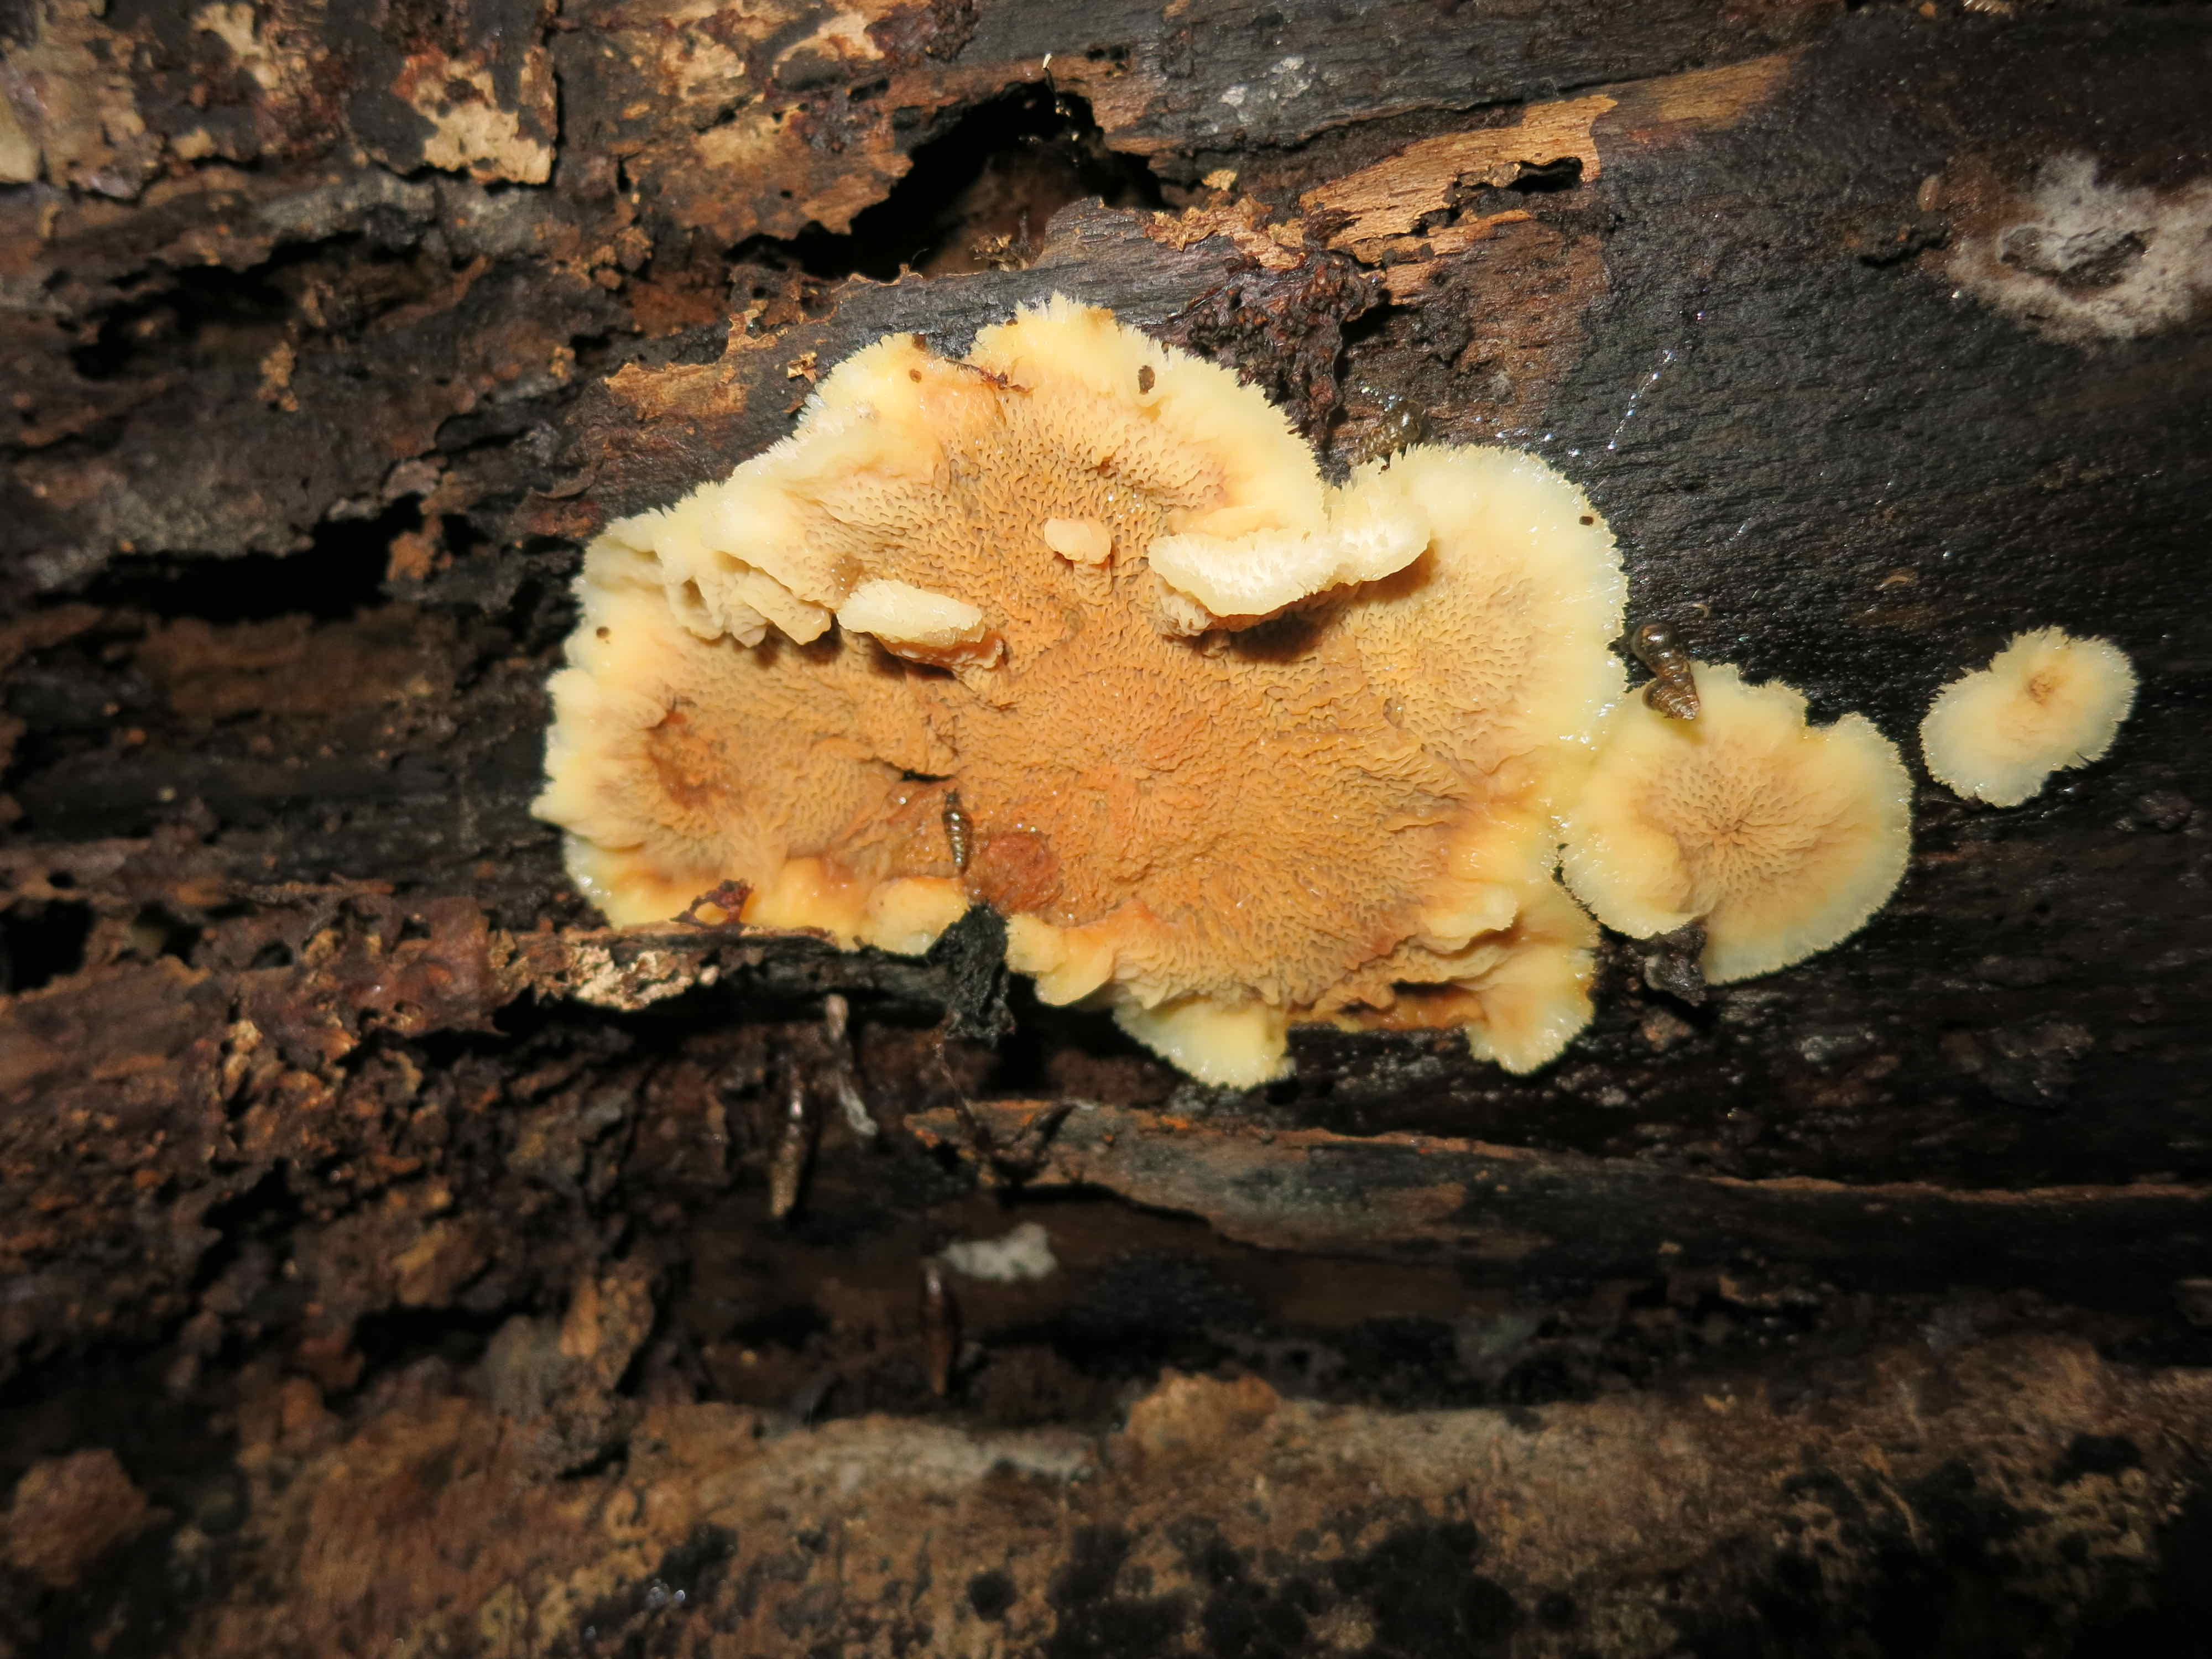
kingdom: Fungi
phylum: Basidiomycota
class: Agaricomycetes
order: Polyporales
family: Meruliaceae
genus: Phlebia
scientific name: Phlebia tremellosa
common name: bævrende åresvamp
